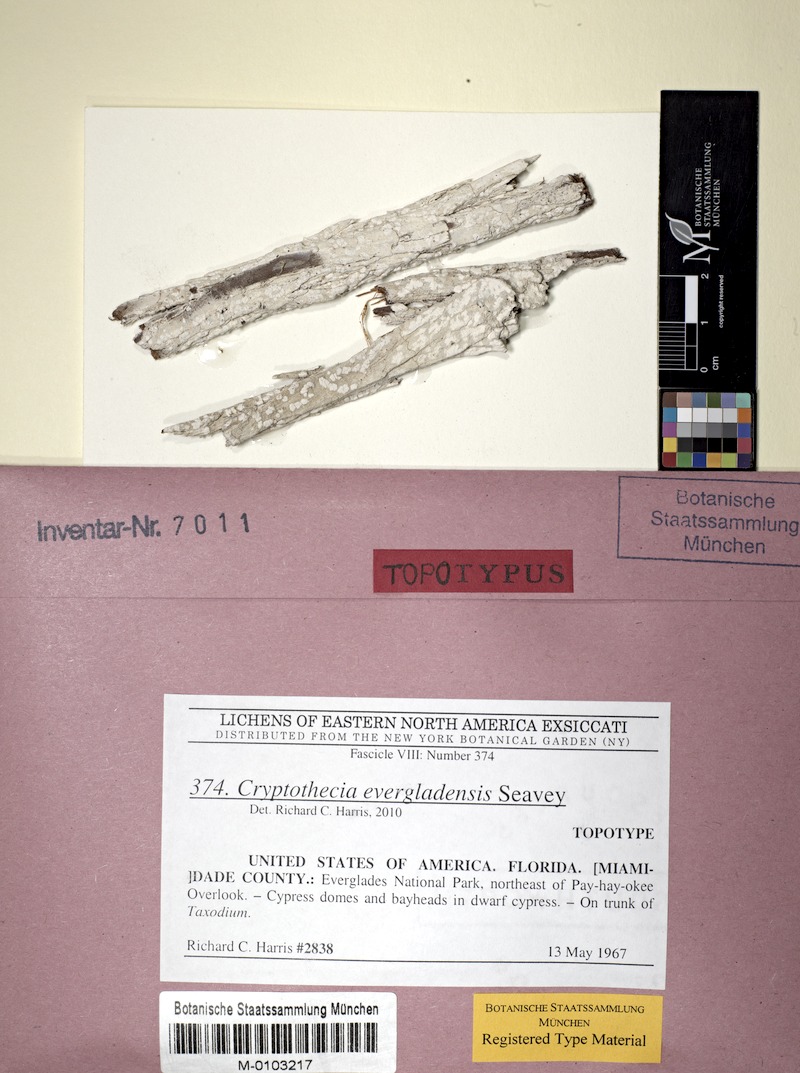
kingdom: Fungi
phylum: Ascomycota
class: Arthoniomycetes
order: Arthoniales
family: Arthoniaceae
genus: Cryptothecia
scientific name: Cryptothecia evergladensis
